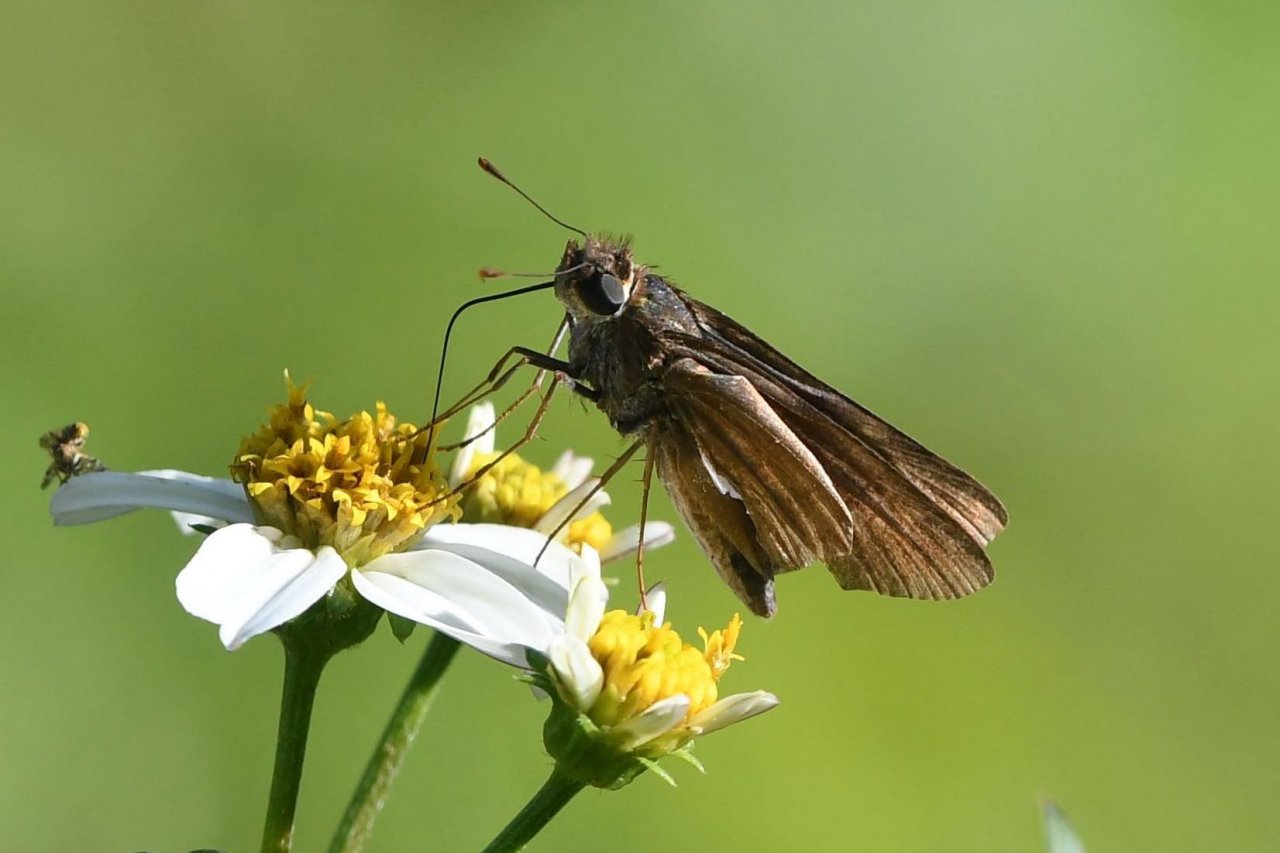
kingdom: Animalia
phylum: Arthropoda
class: Insecta
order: Lepidoptera
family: Hesperiidae
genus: Panoquina
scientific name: Panoquina ocola
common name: Ocola Skipper
